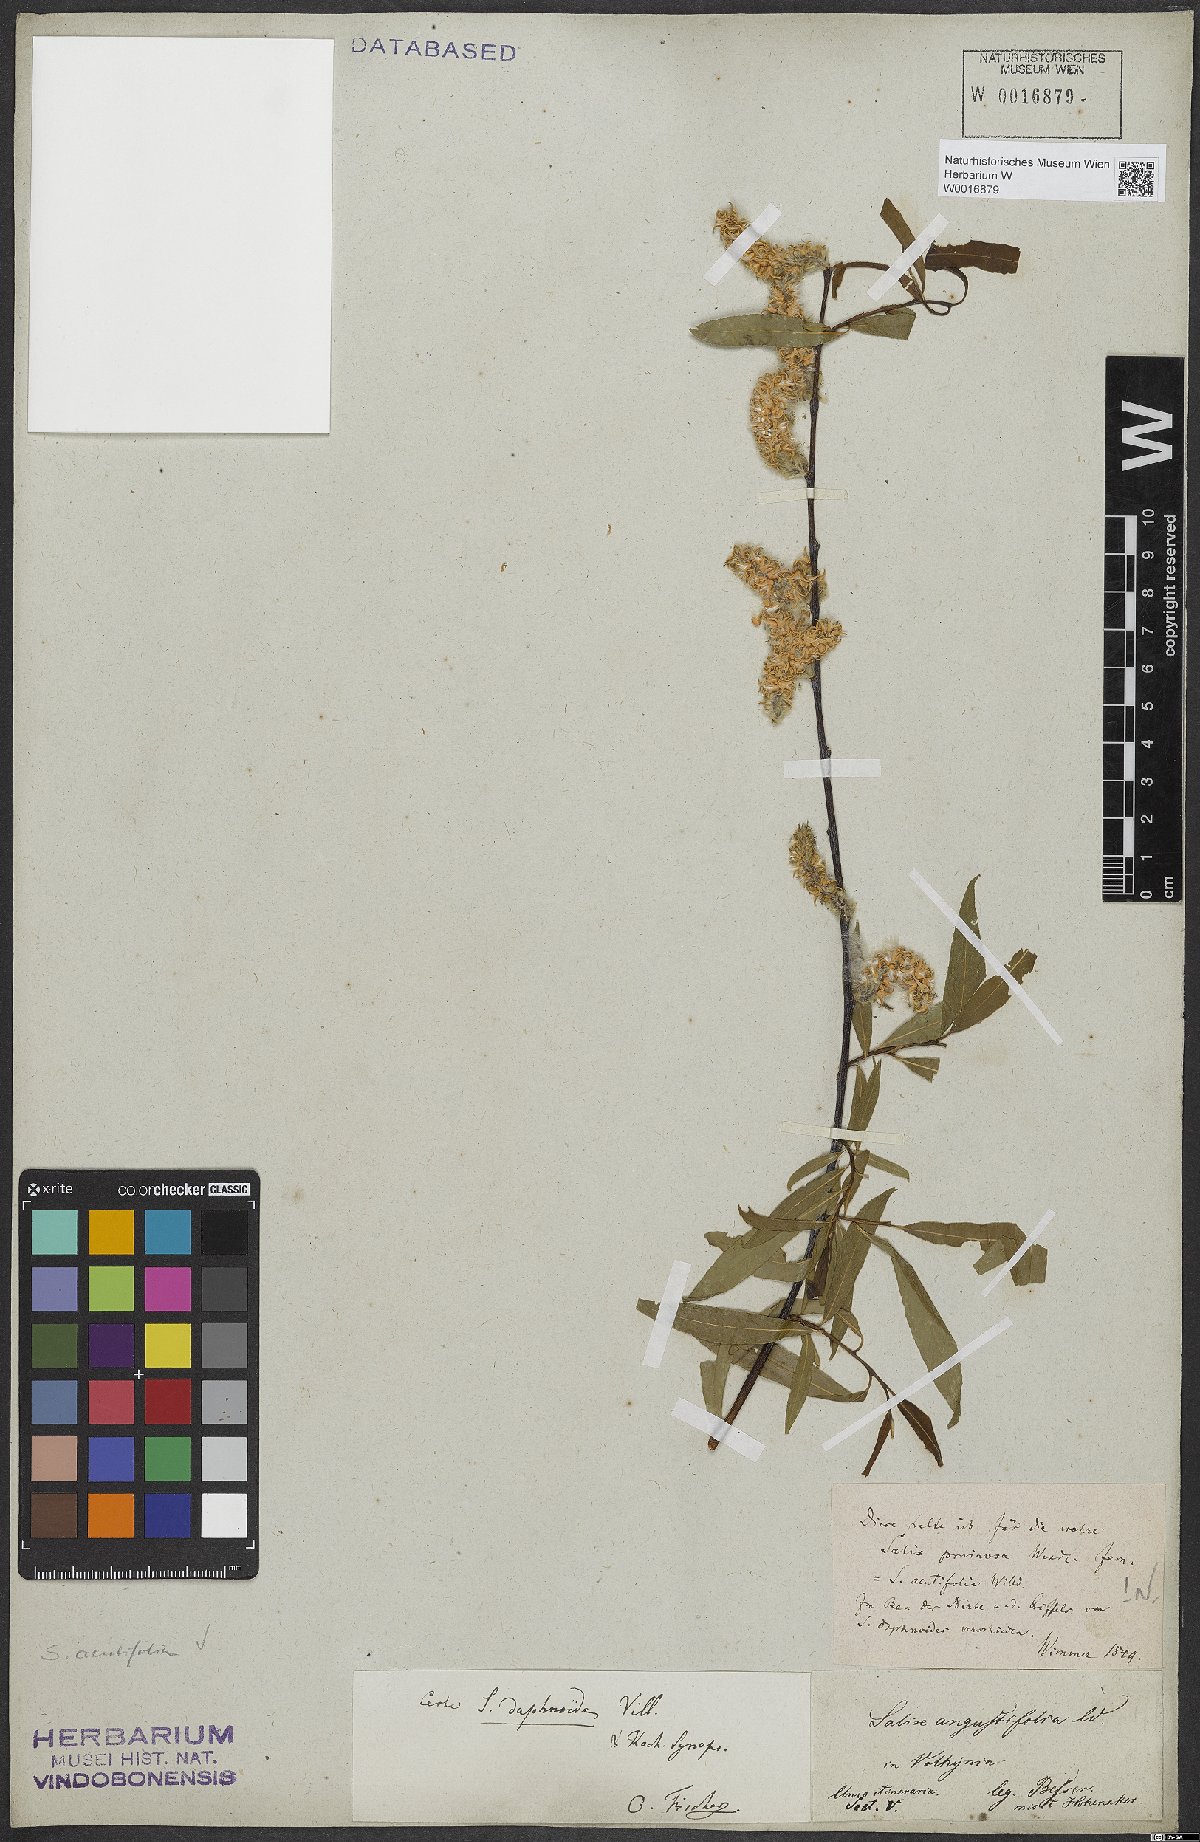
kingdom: Plantae
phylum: Tracheophyta
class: Magnoliopsida
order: Malpighiales
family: Salicaceae
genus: Salix
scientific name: Salix acutifolia
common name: Siberian violet-willow
